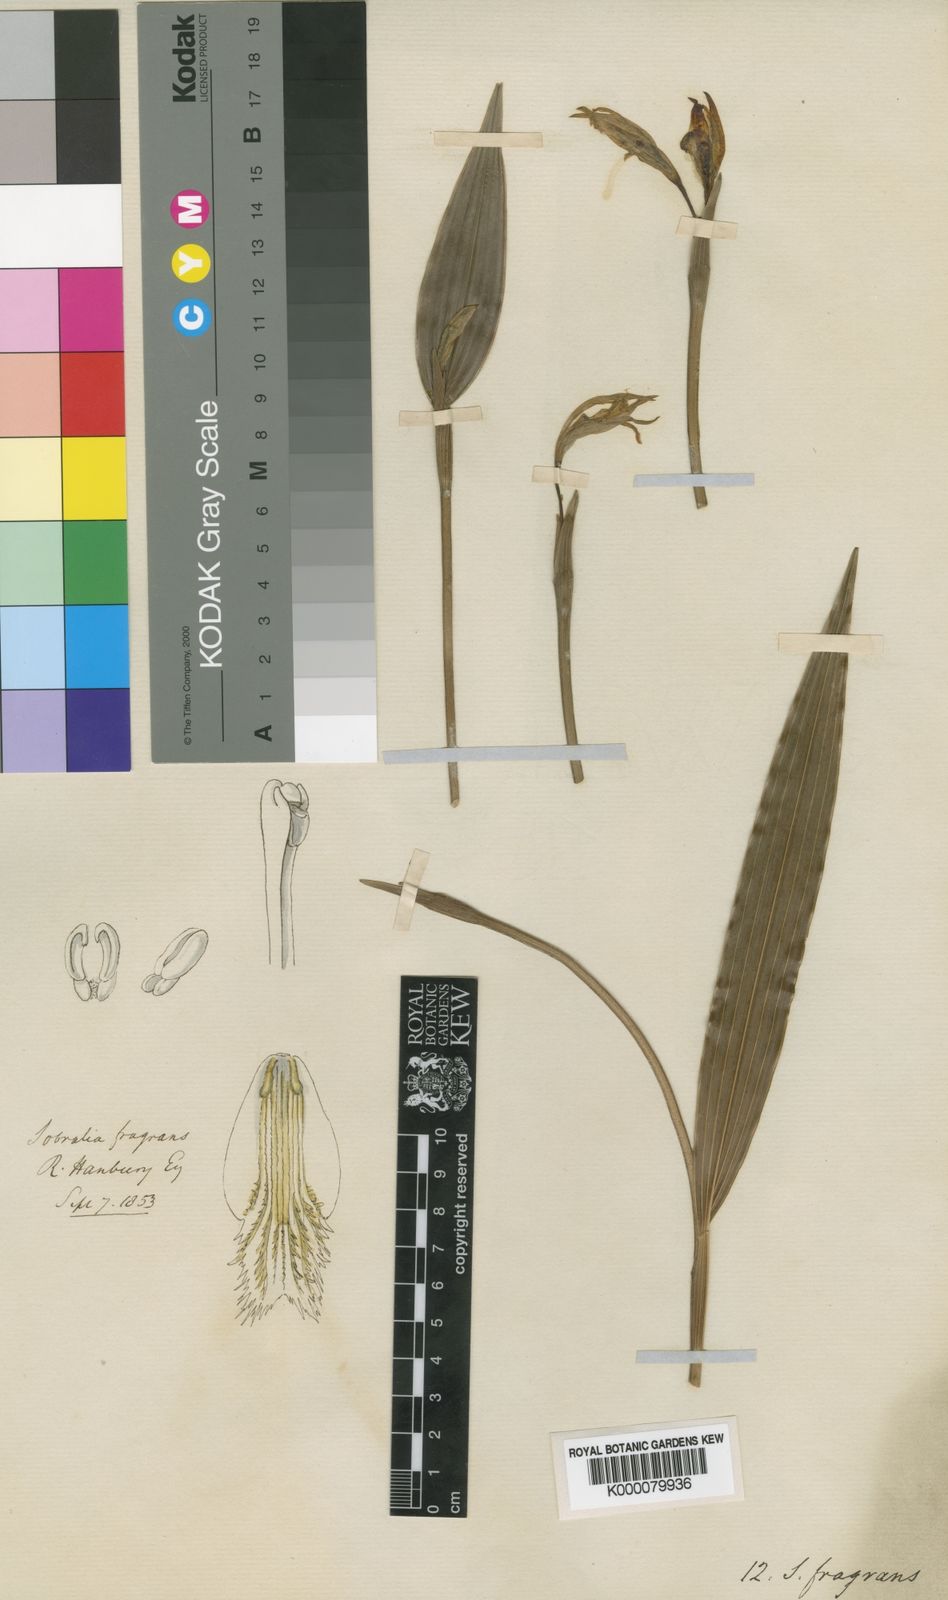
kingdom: Plantae
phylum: Tracheophyta
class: Liliopsida
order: Asparagales
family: Orchidaceae
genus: Sobralia
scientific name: Sobralia fragrans
